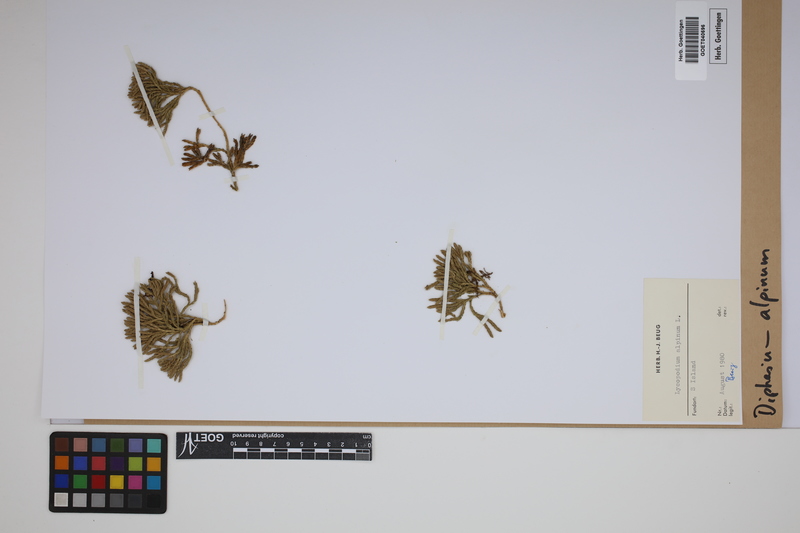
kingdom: Plantae
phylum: Tracheophyta
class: Lycopodiopsida
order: Lycopodiales
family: Lycopodiaceae
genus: Diphasiastrum
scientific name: Diphasiastrum alpinum
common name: Alpine clubmoss
